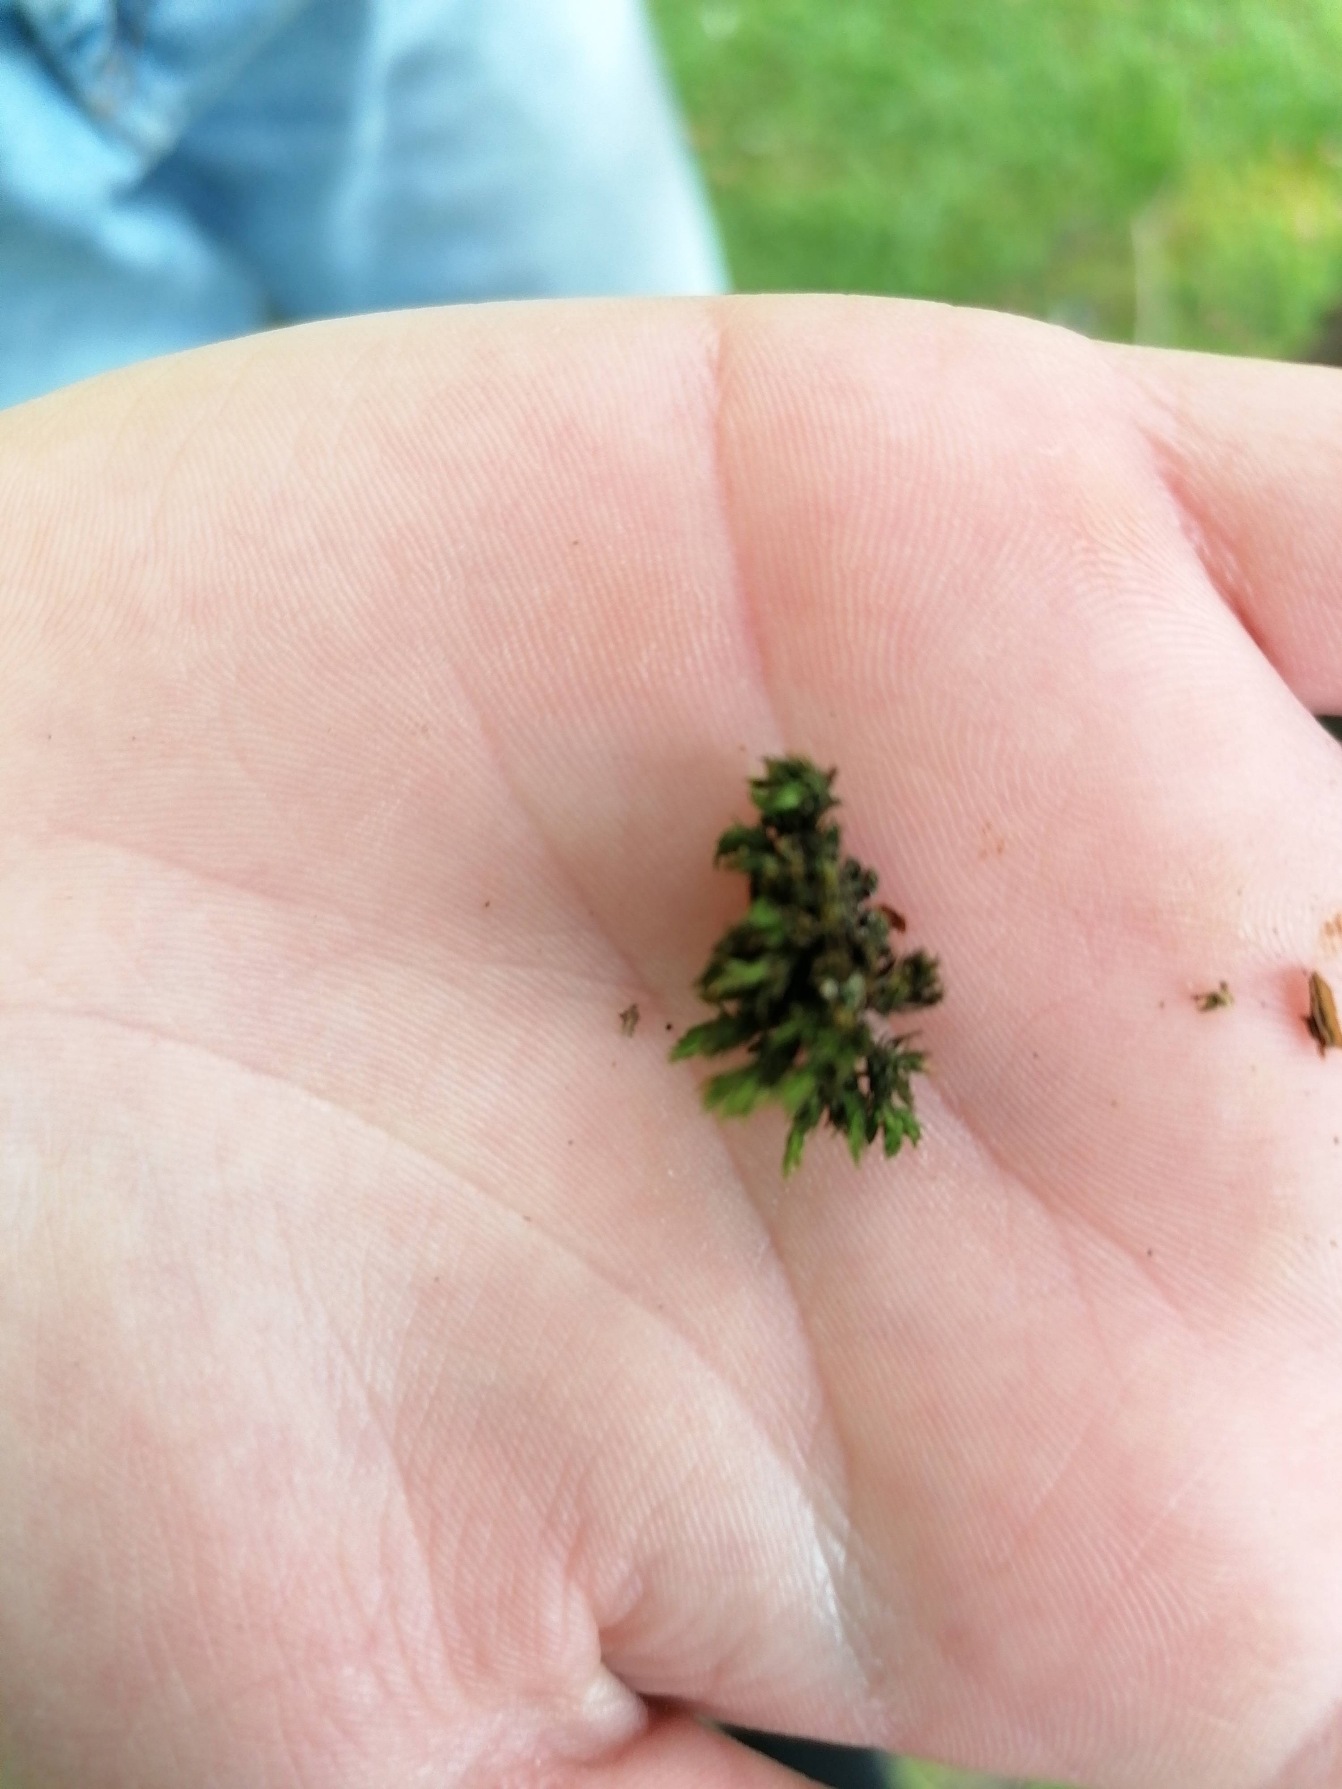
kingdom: Plantae
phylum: Bryophyta
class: Bryopsida
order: Orthotrichales
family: Orthotrichaceae
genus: Lewinskya
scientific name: Lewinskya affinis
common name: Almindelig furehætte
